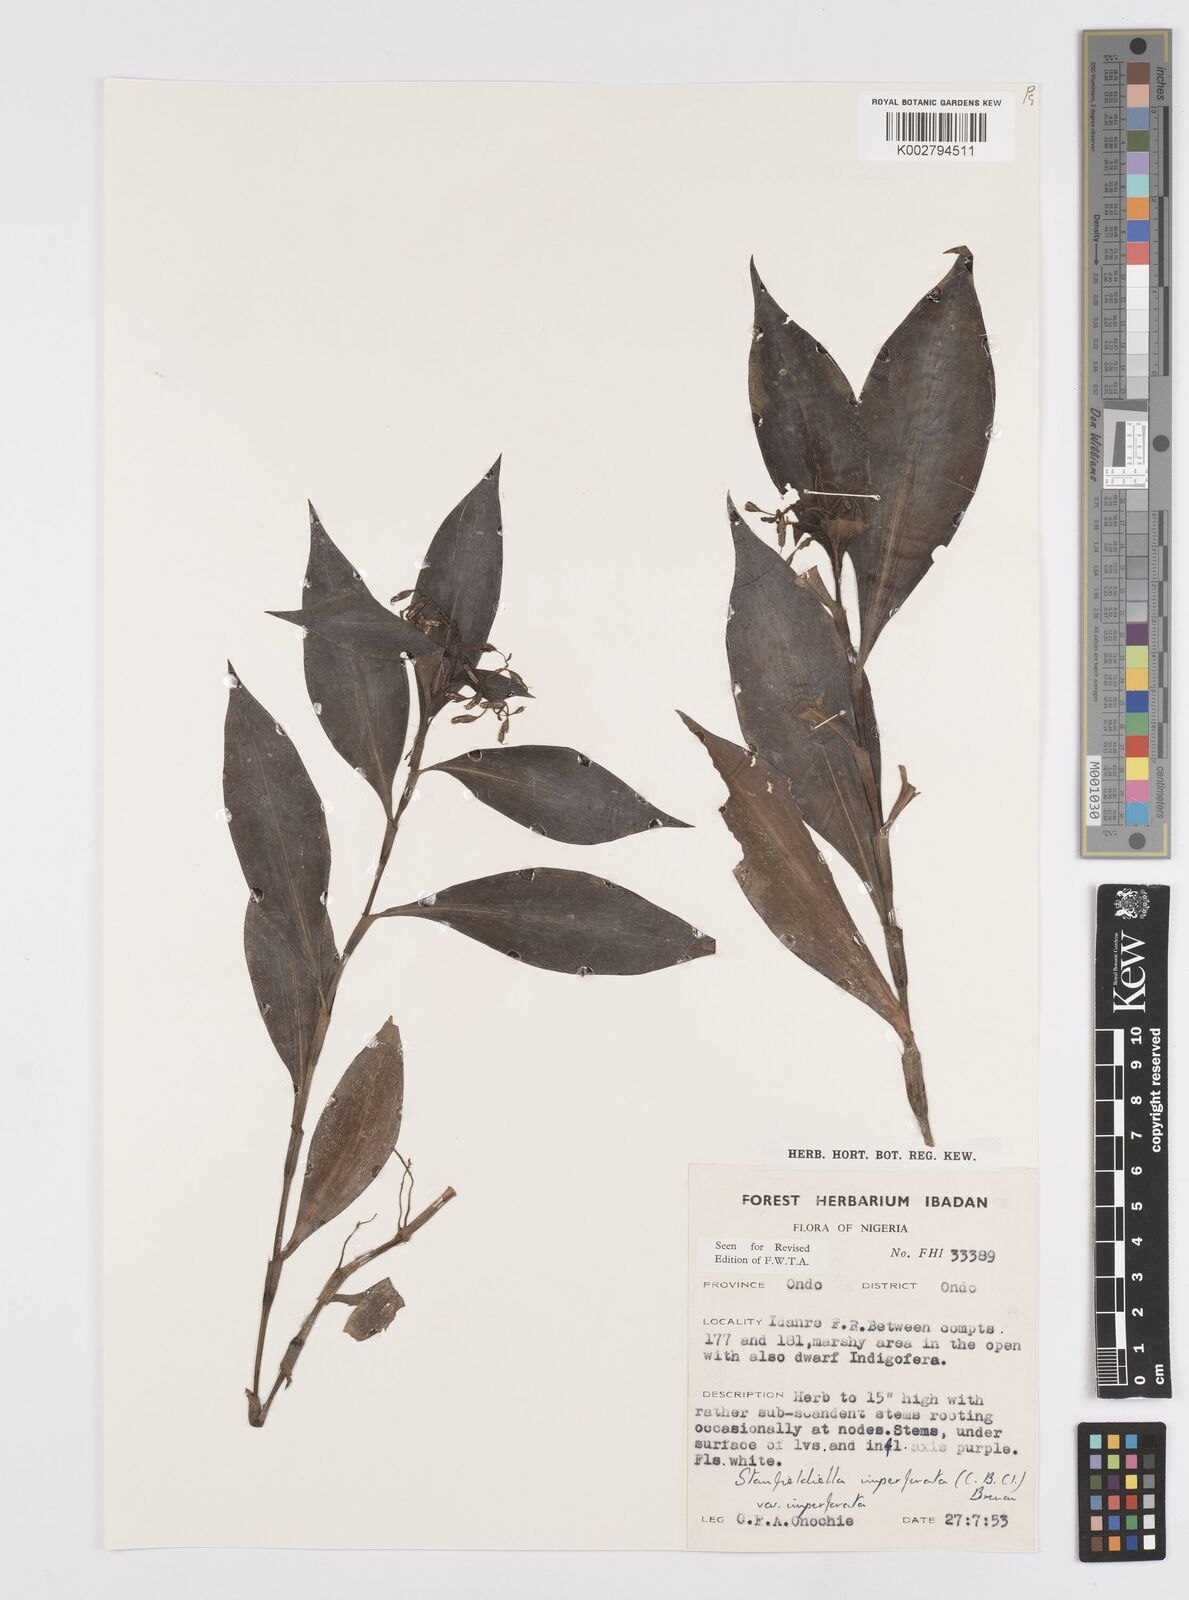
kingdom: Plantae
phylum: Tracheophyta
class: Liliopsida
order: Commelinales
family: Commelinaceae
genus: Stanfieldiella
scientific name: Stanfieldiella imperforata
